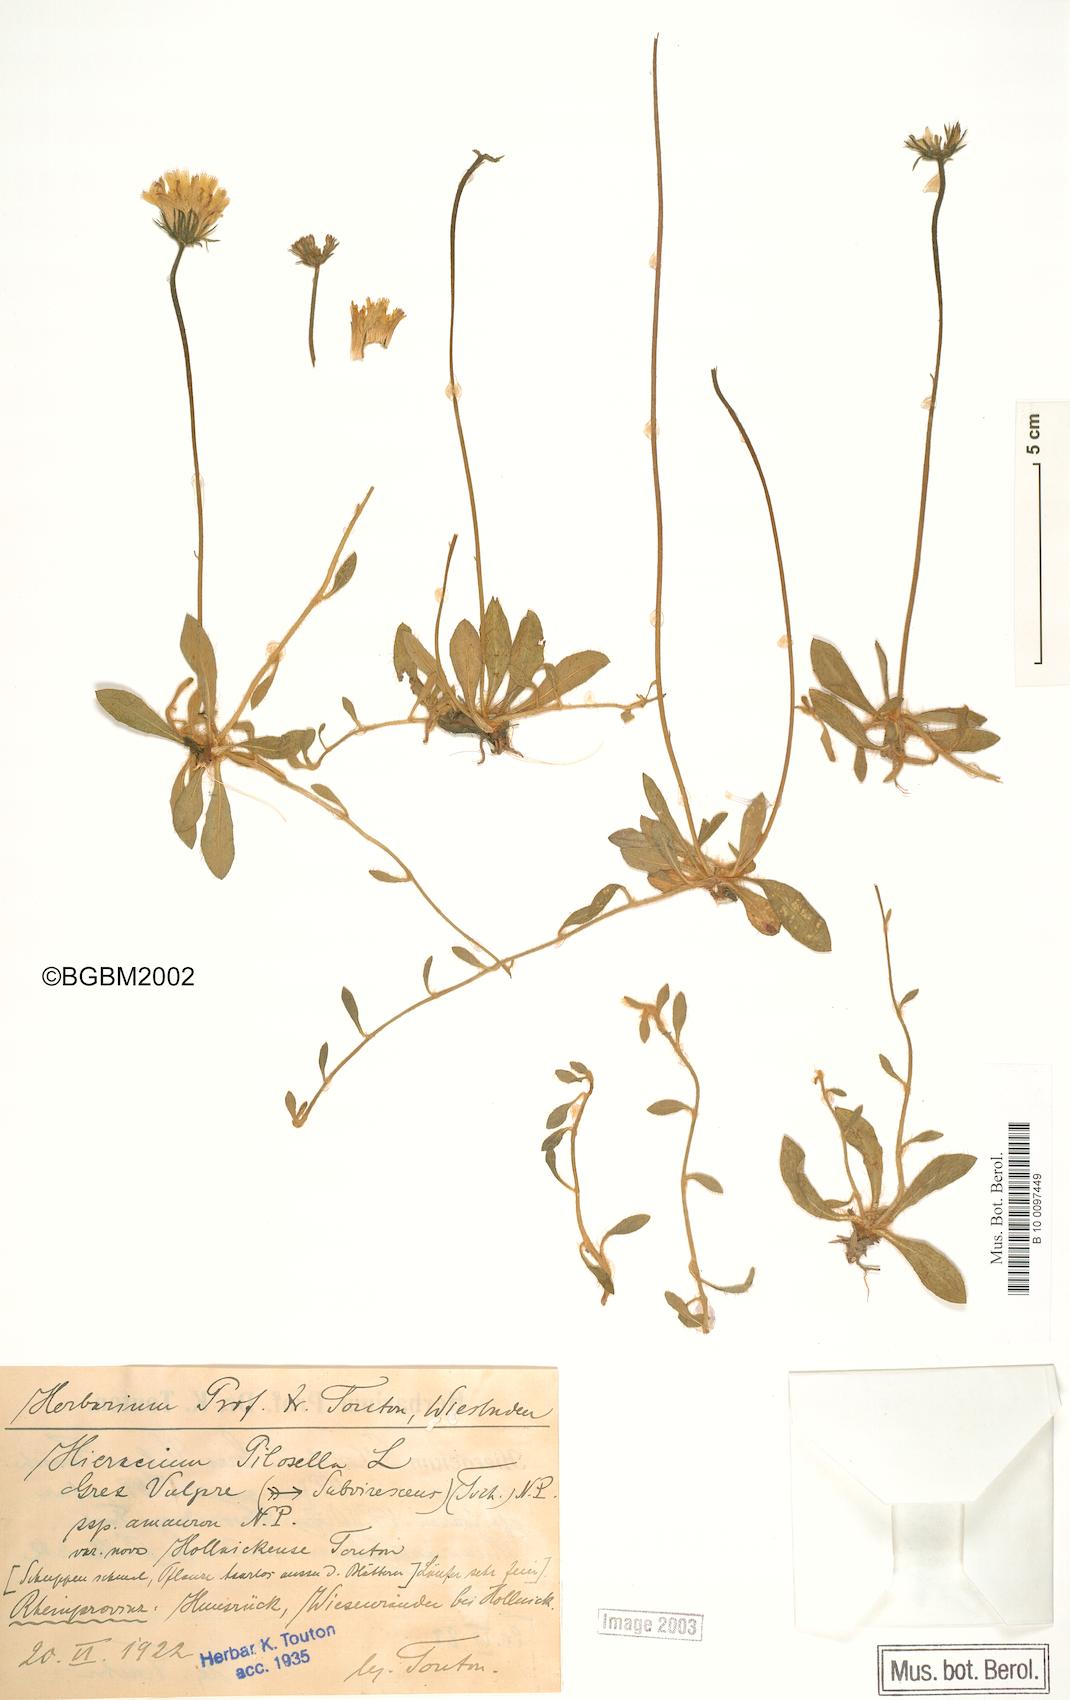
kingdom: Plantae
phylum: Tracheophyta
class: Magnoliopsida
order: Asterales
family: Asteraceae
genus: Pilosella
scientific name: Pilosella officinarum
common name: Mouse-ear hawkweed
